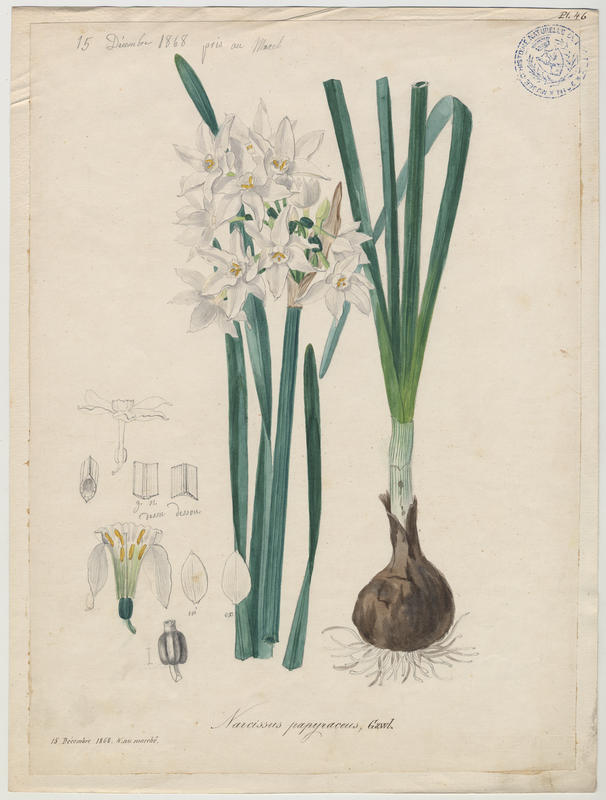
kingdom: Plantae
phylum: Tracheophyta
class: Liliopsida
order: Asparagales
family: Amaryllidaceae
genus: Narcissus
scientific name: Narcissus papyraceus
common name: Paper-white daffodil
